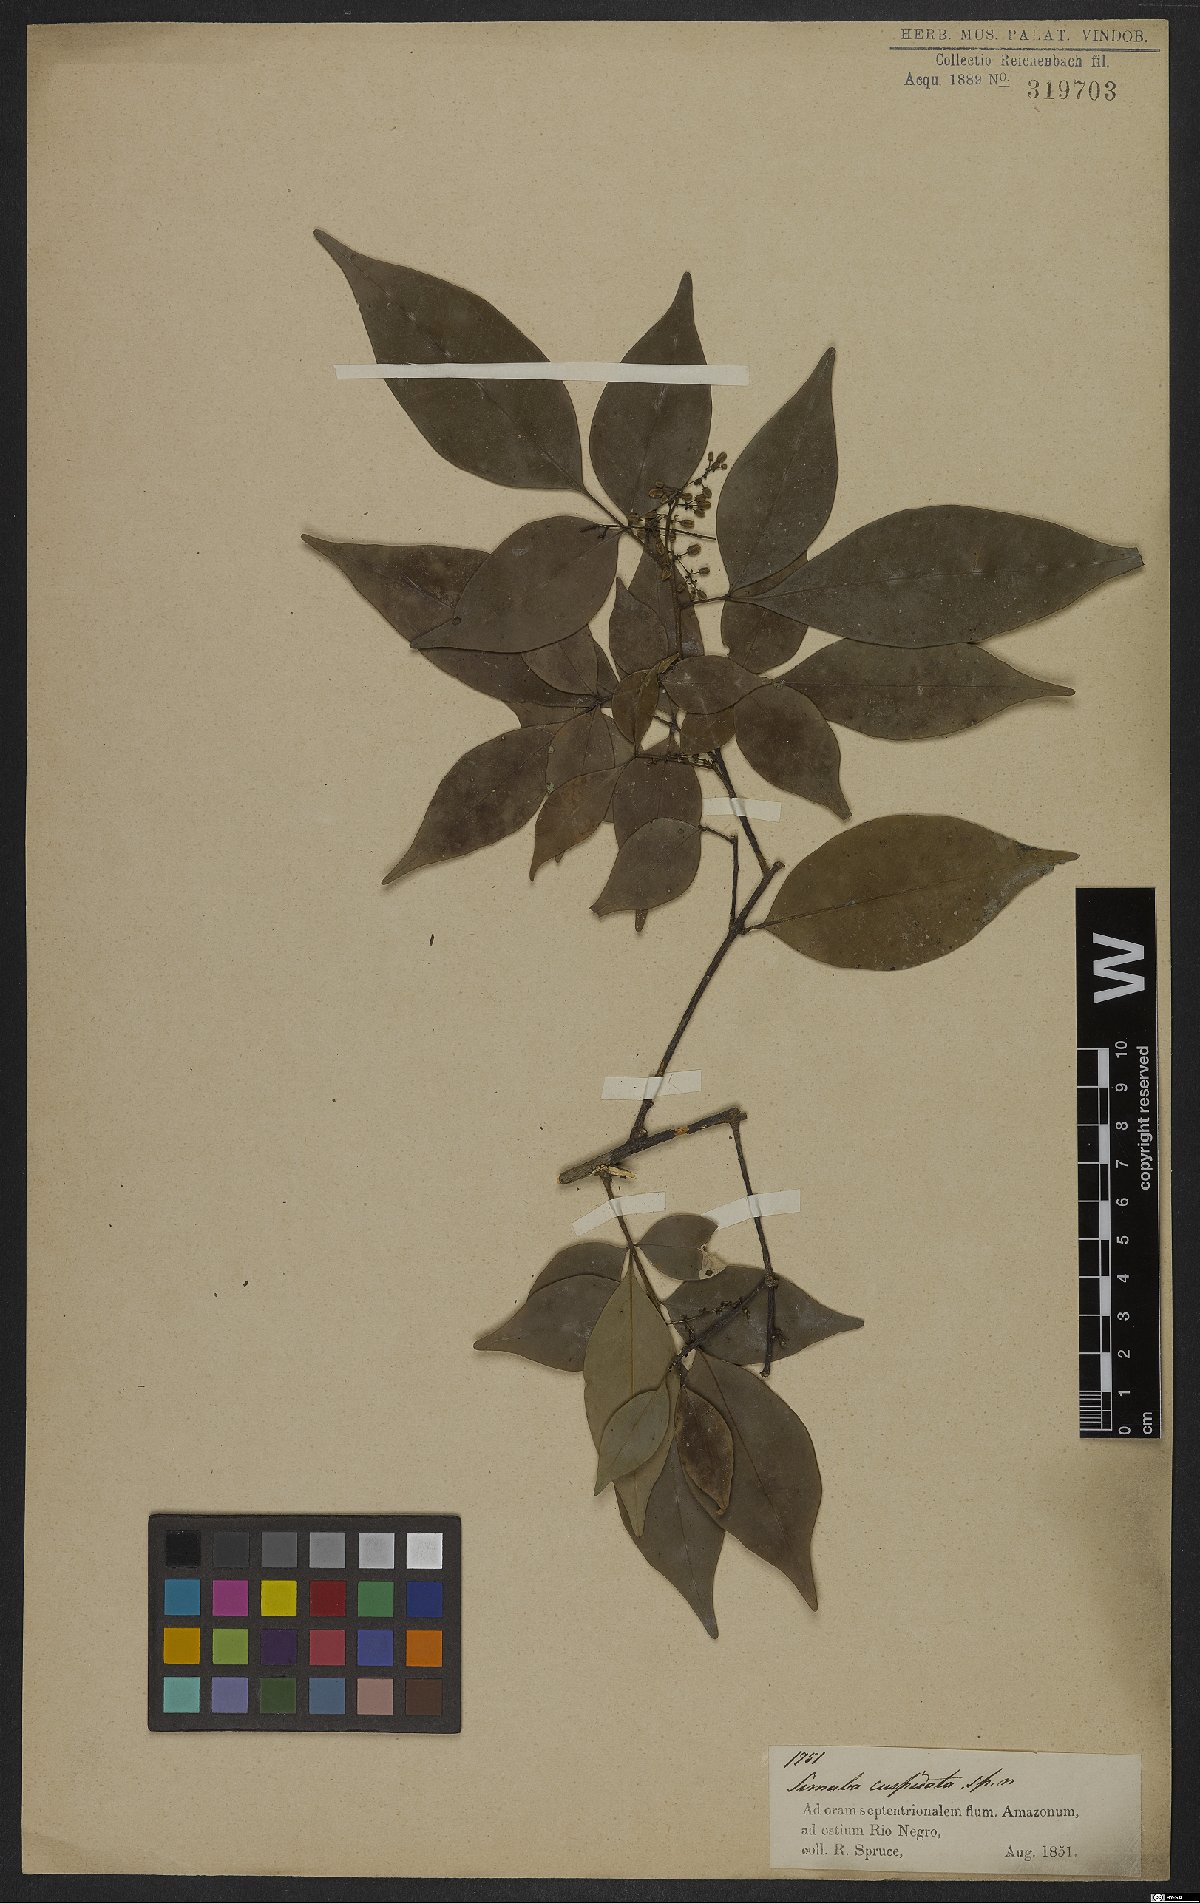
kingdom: Plantae
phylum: Tracheophyta
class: Magnoliopsida
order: Sapindales
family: Simaroubaceae
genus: Simaba
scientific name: Simaba guianensis
